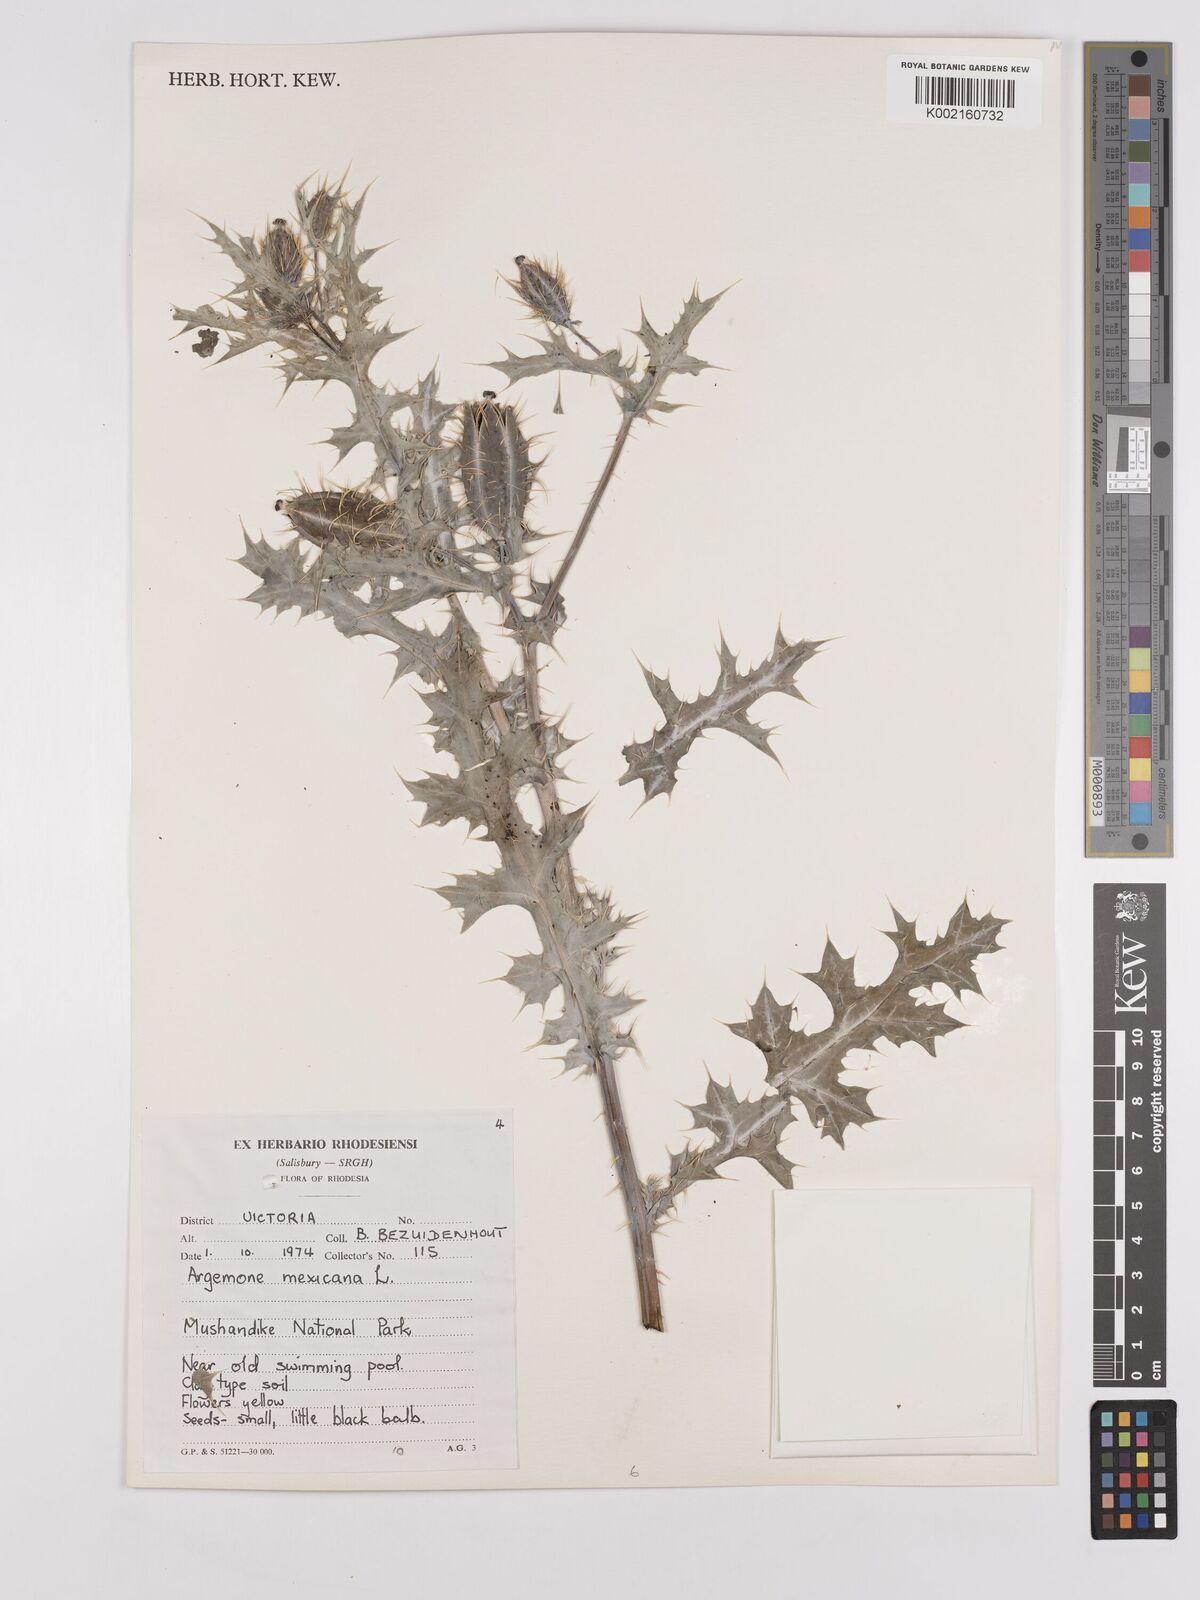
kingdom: Plantae
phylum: Tracheophyta
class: Magnoliopsida
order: Ranunculales
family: Papaveraceae
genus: Argemone
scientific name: Argemone mexicana
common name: Mexican poppy
